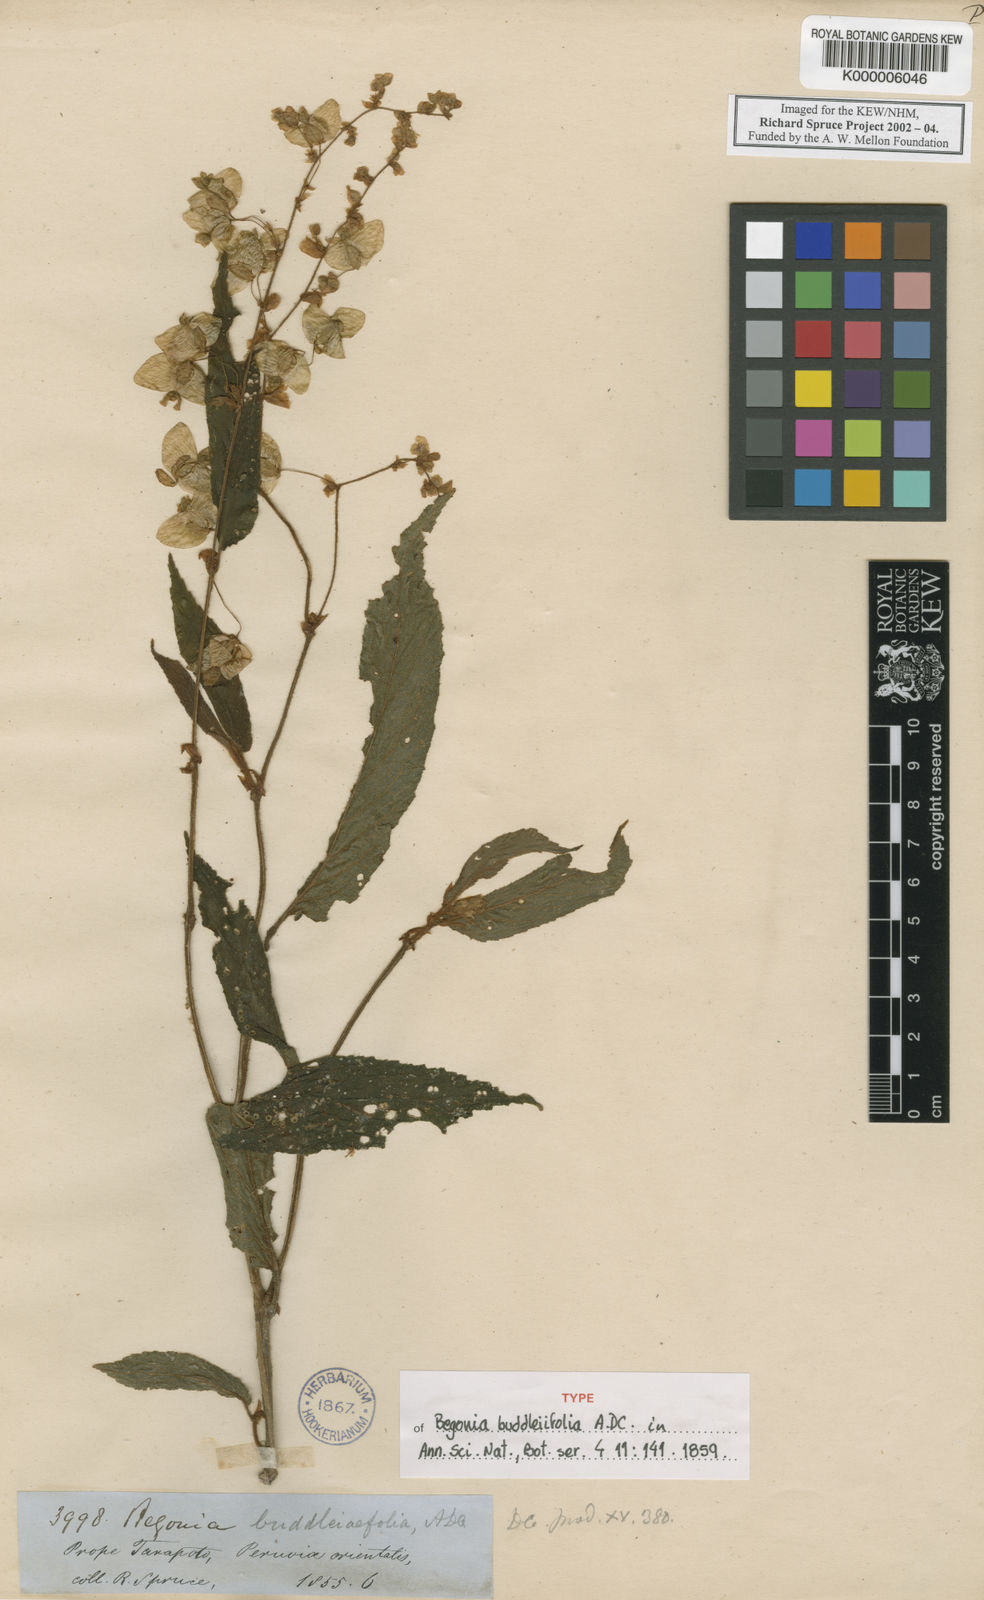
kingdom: Plantae
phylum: Tracheophyta
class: Magnoliopsida
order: Cucurbitales
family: Begoniaceae
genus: Begonia
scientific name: Begonia buddleiifolia
